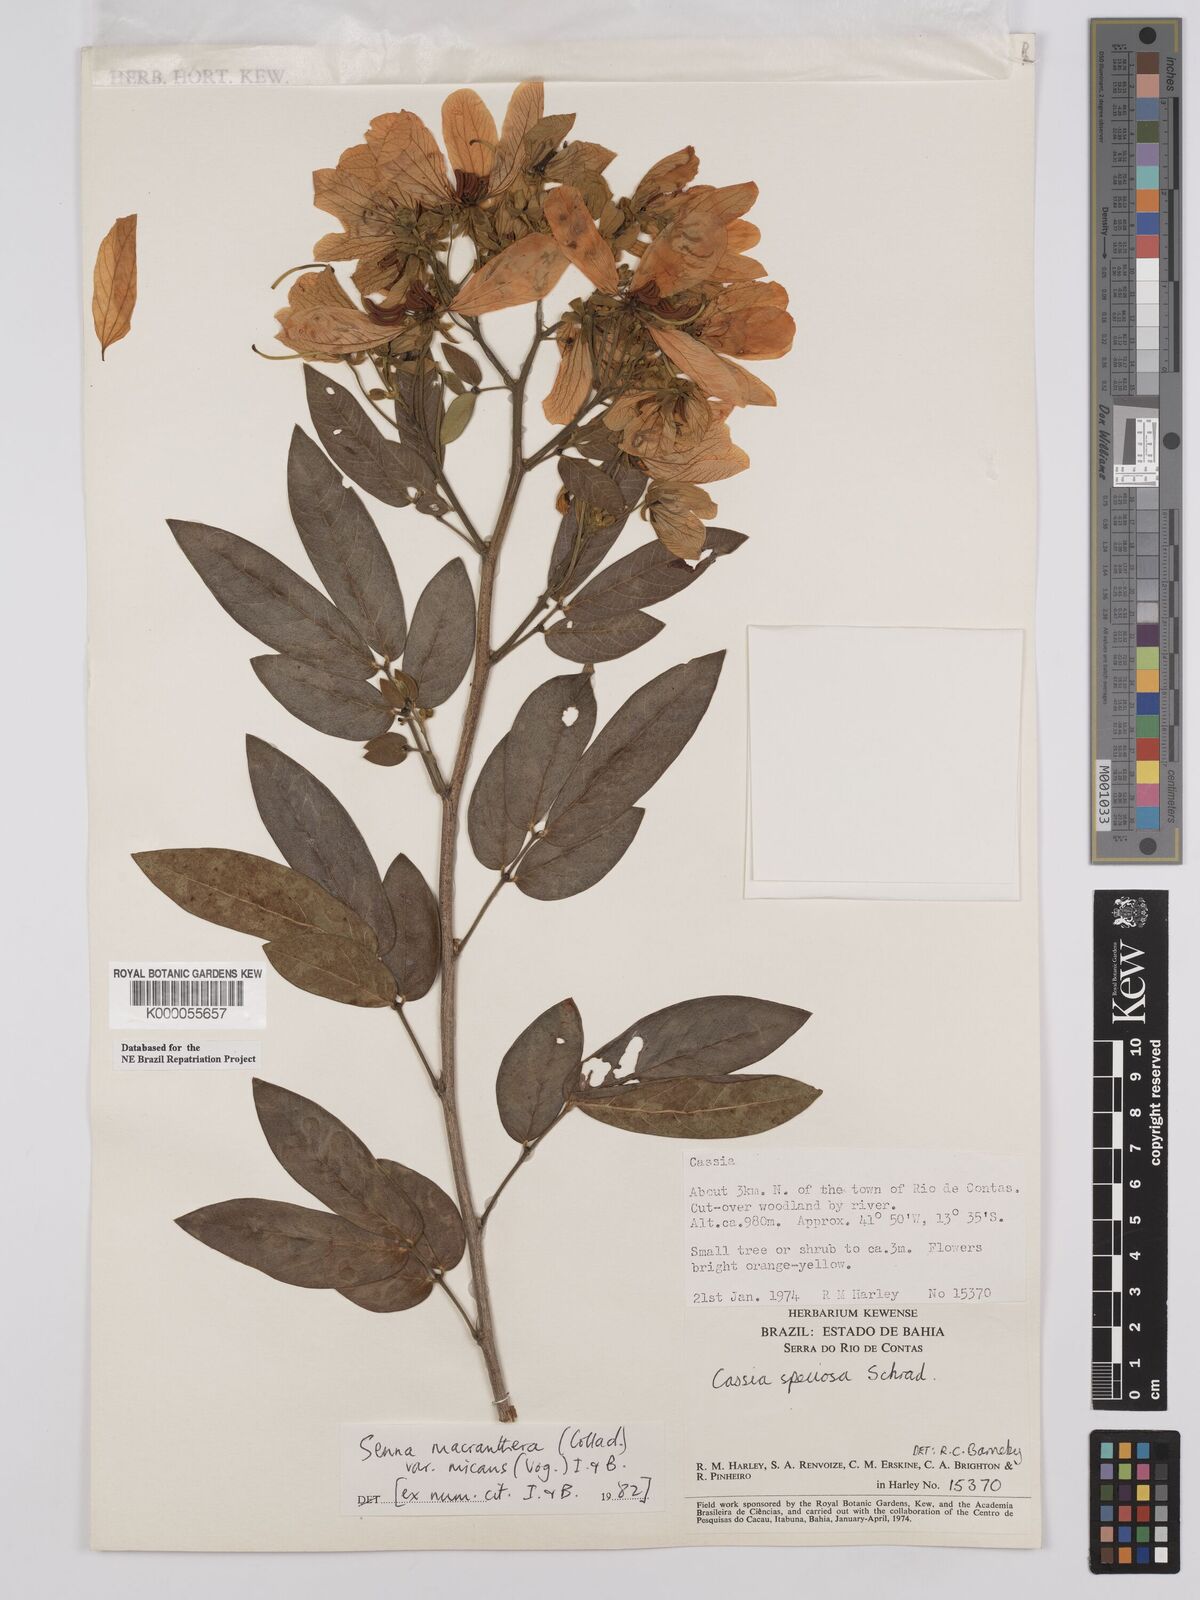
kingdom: Plantae
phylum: Tracheophyta
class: Magnoliopsida
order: Fabales
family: Fabaceae
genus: Senna
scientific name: Senna macranthera
